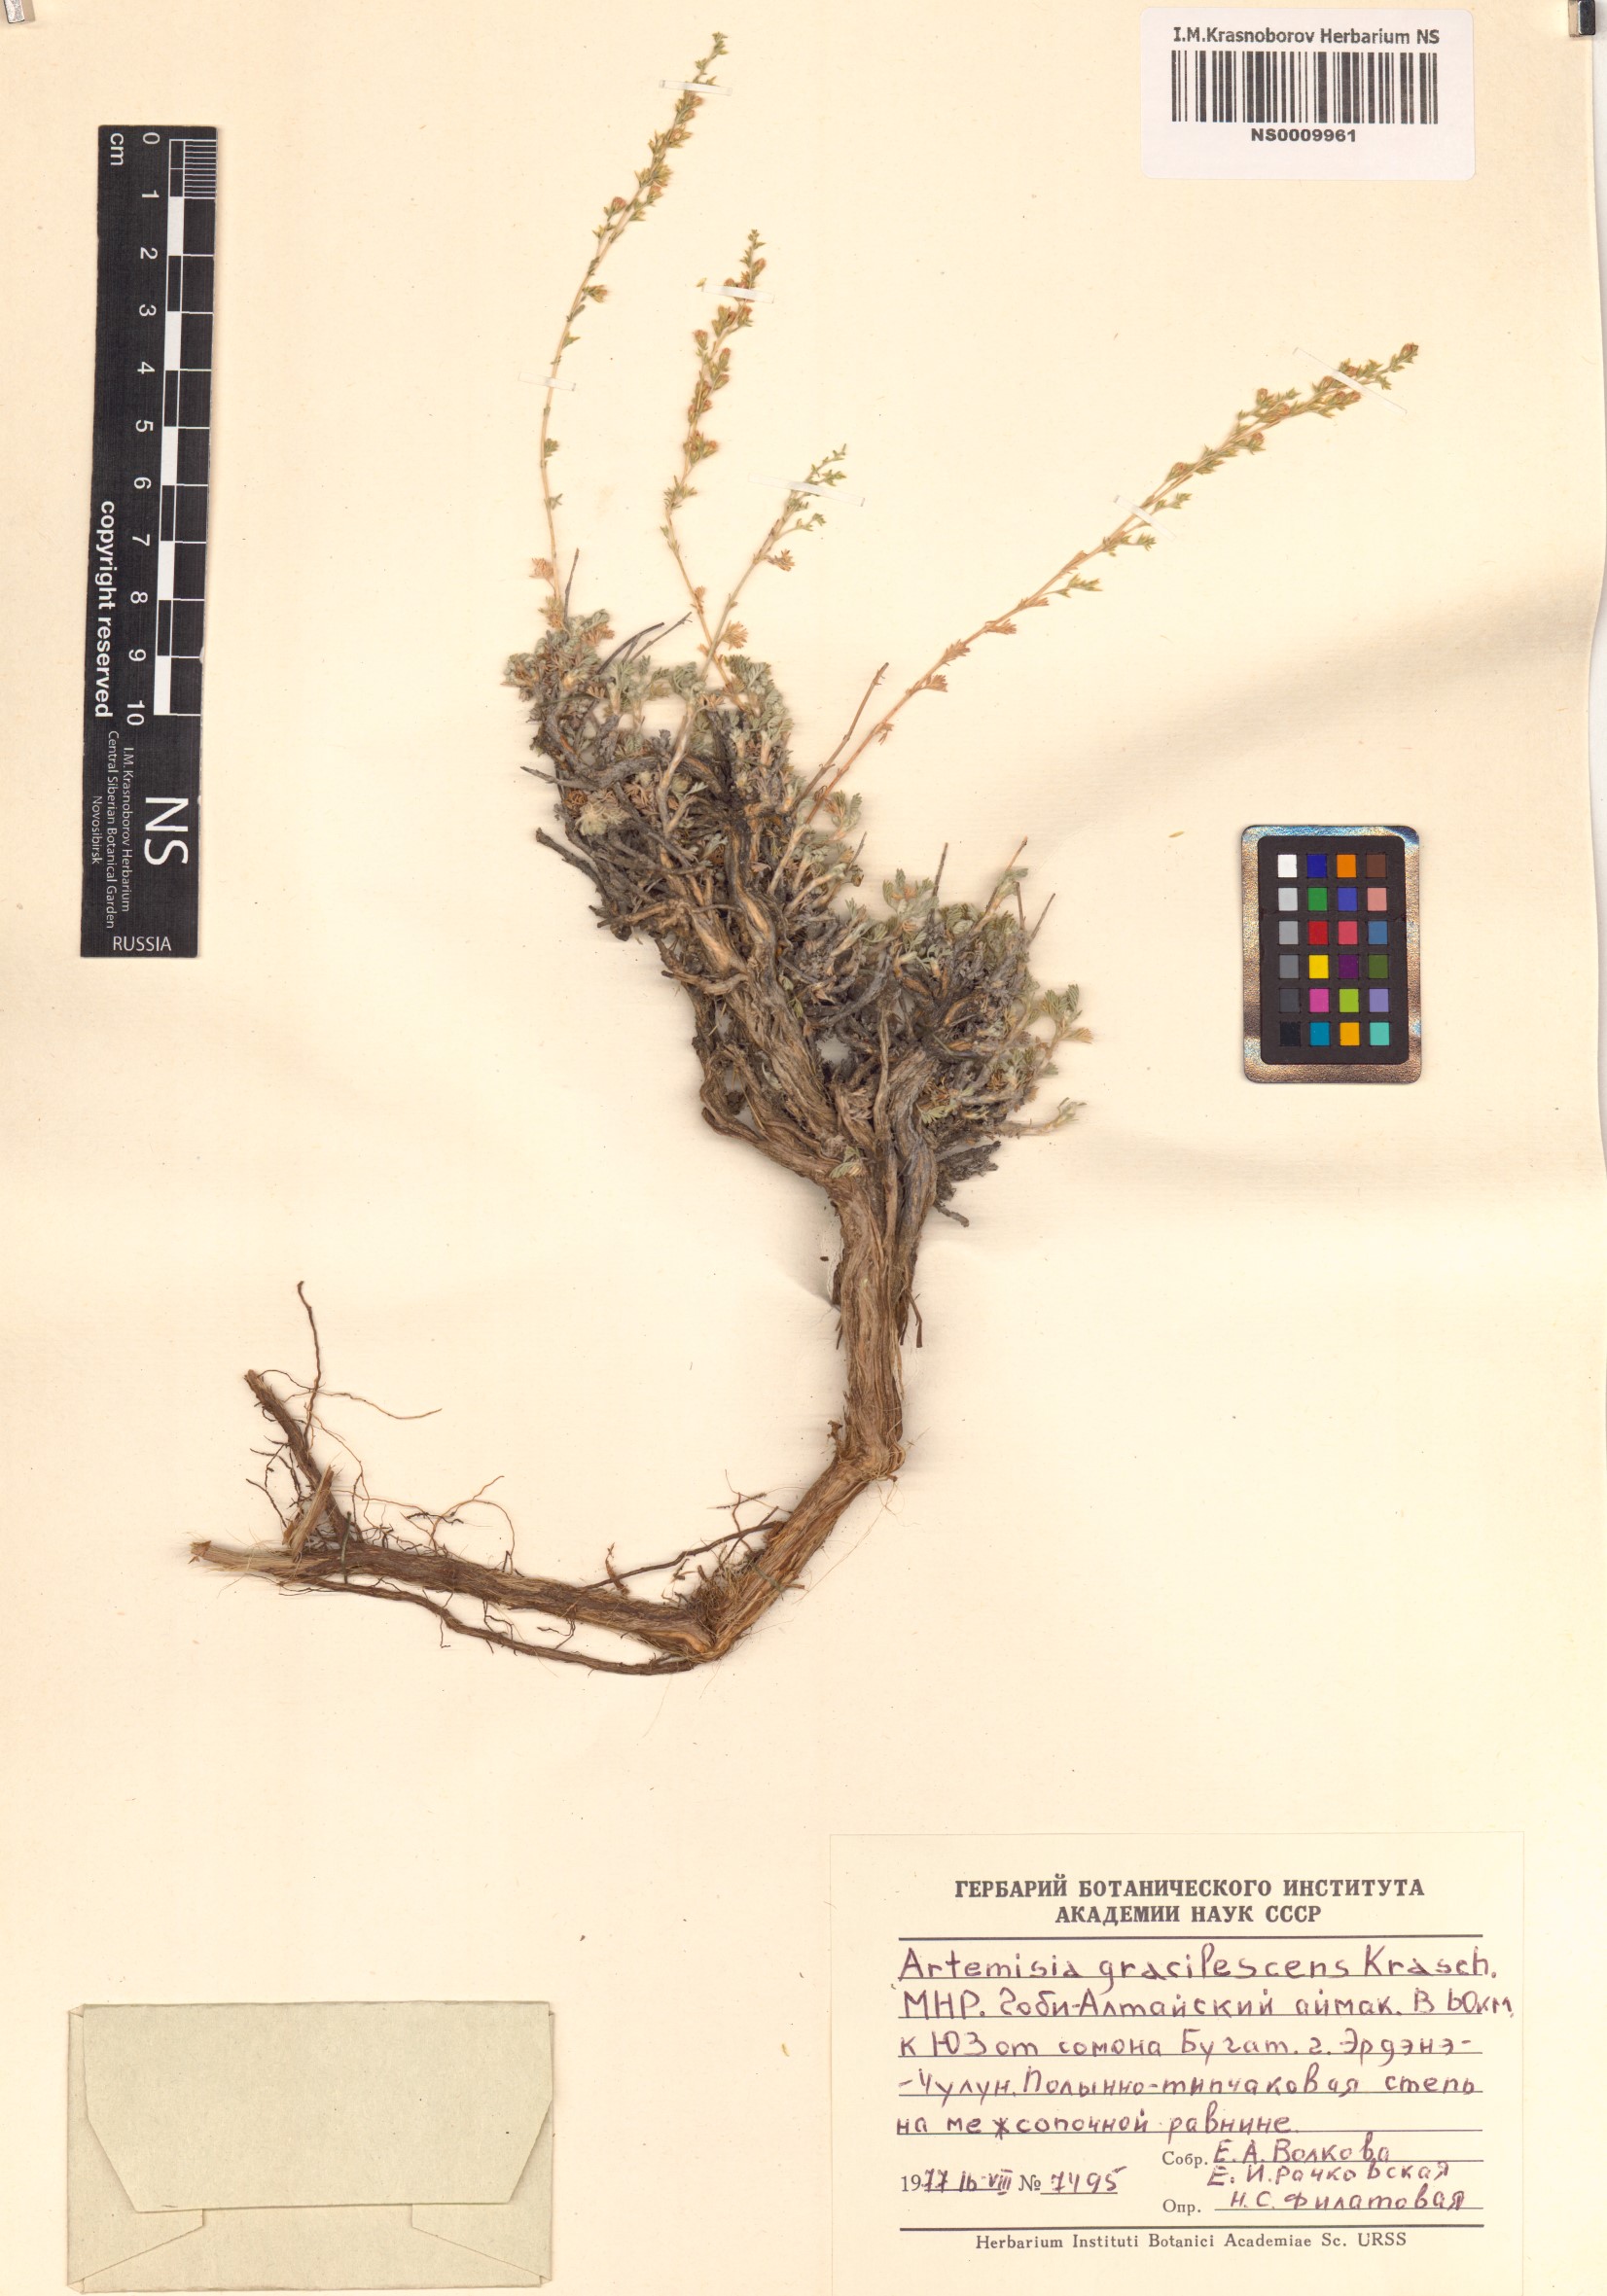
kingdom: Plantae
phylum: Tracheophyta
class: Magnoliopsida
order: Asterales
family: Asteraceae
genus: Artemisia
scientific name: Artemisia gracilescens
